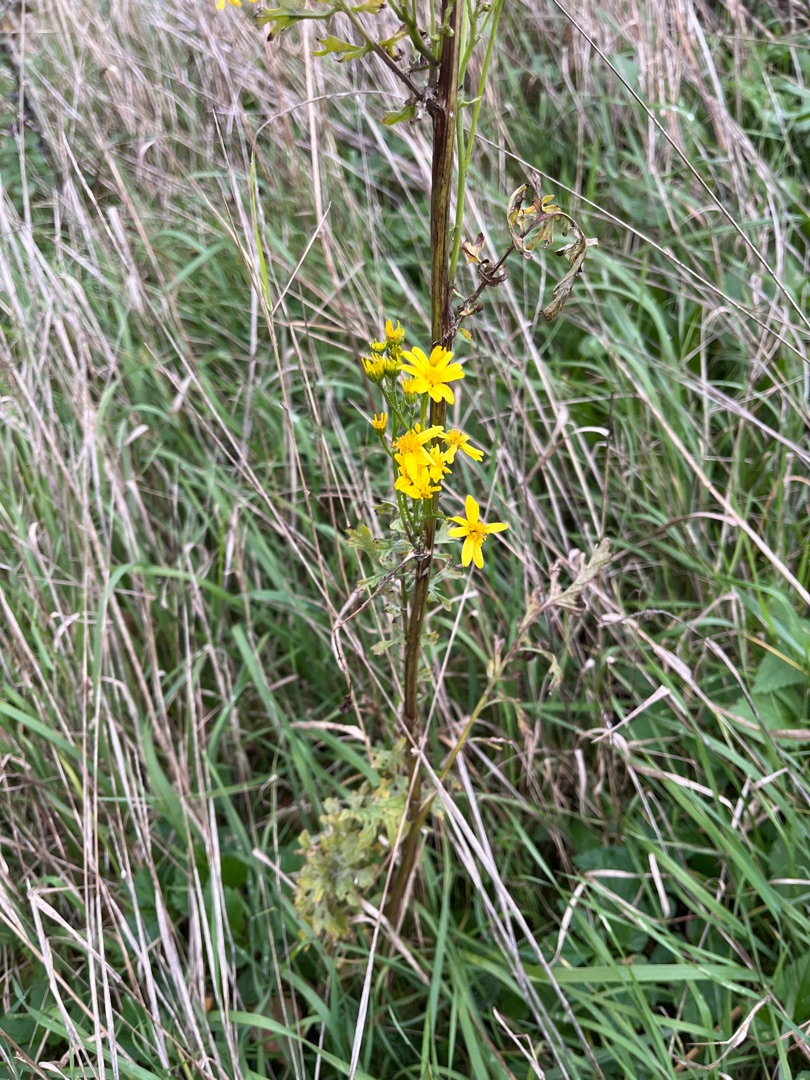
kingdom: Plantae
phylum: Tracheophyta
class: Magnoliopsida
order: Asterales
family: Asteraceae
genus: Jacobaea
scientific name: Jacobaea vulgaris
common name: Eng-brandbæger
